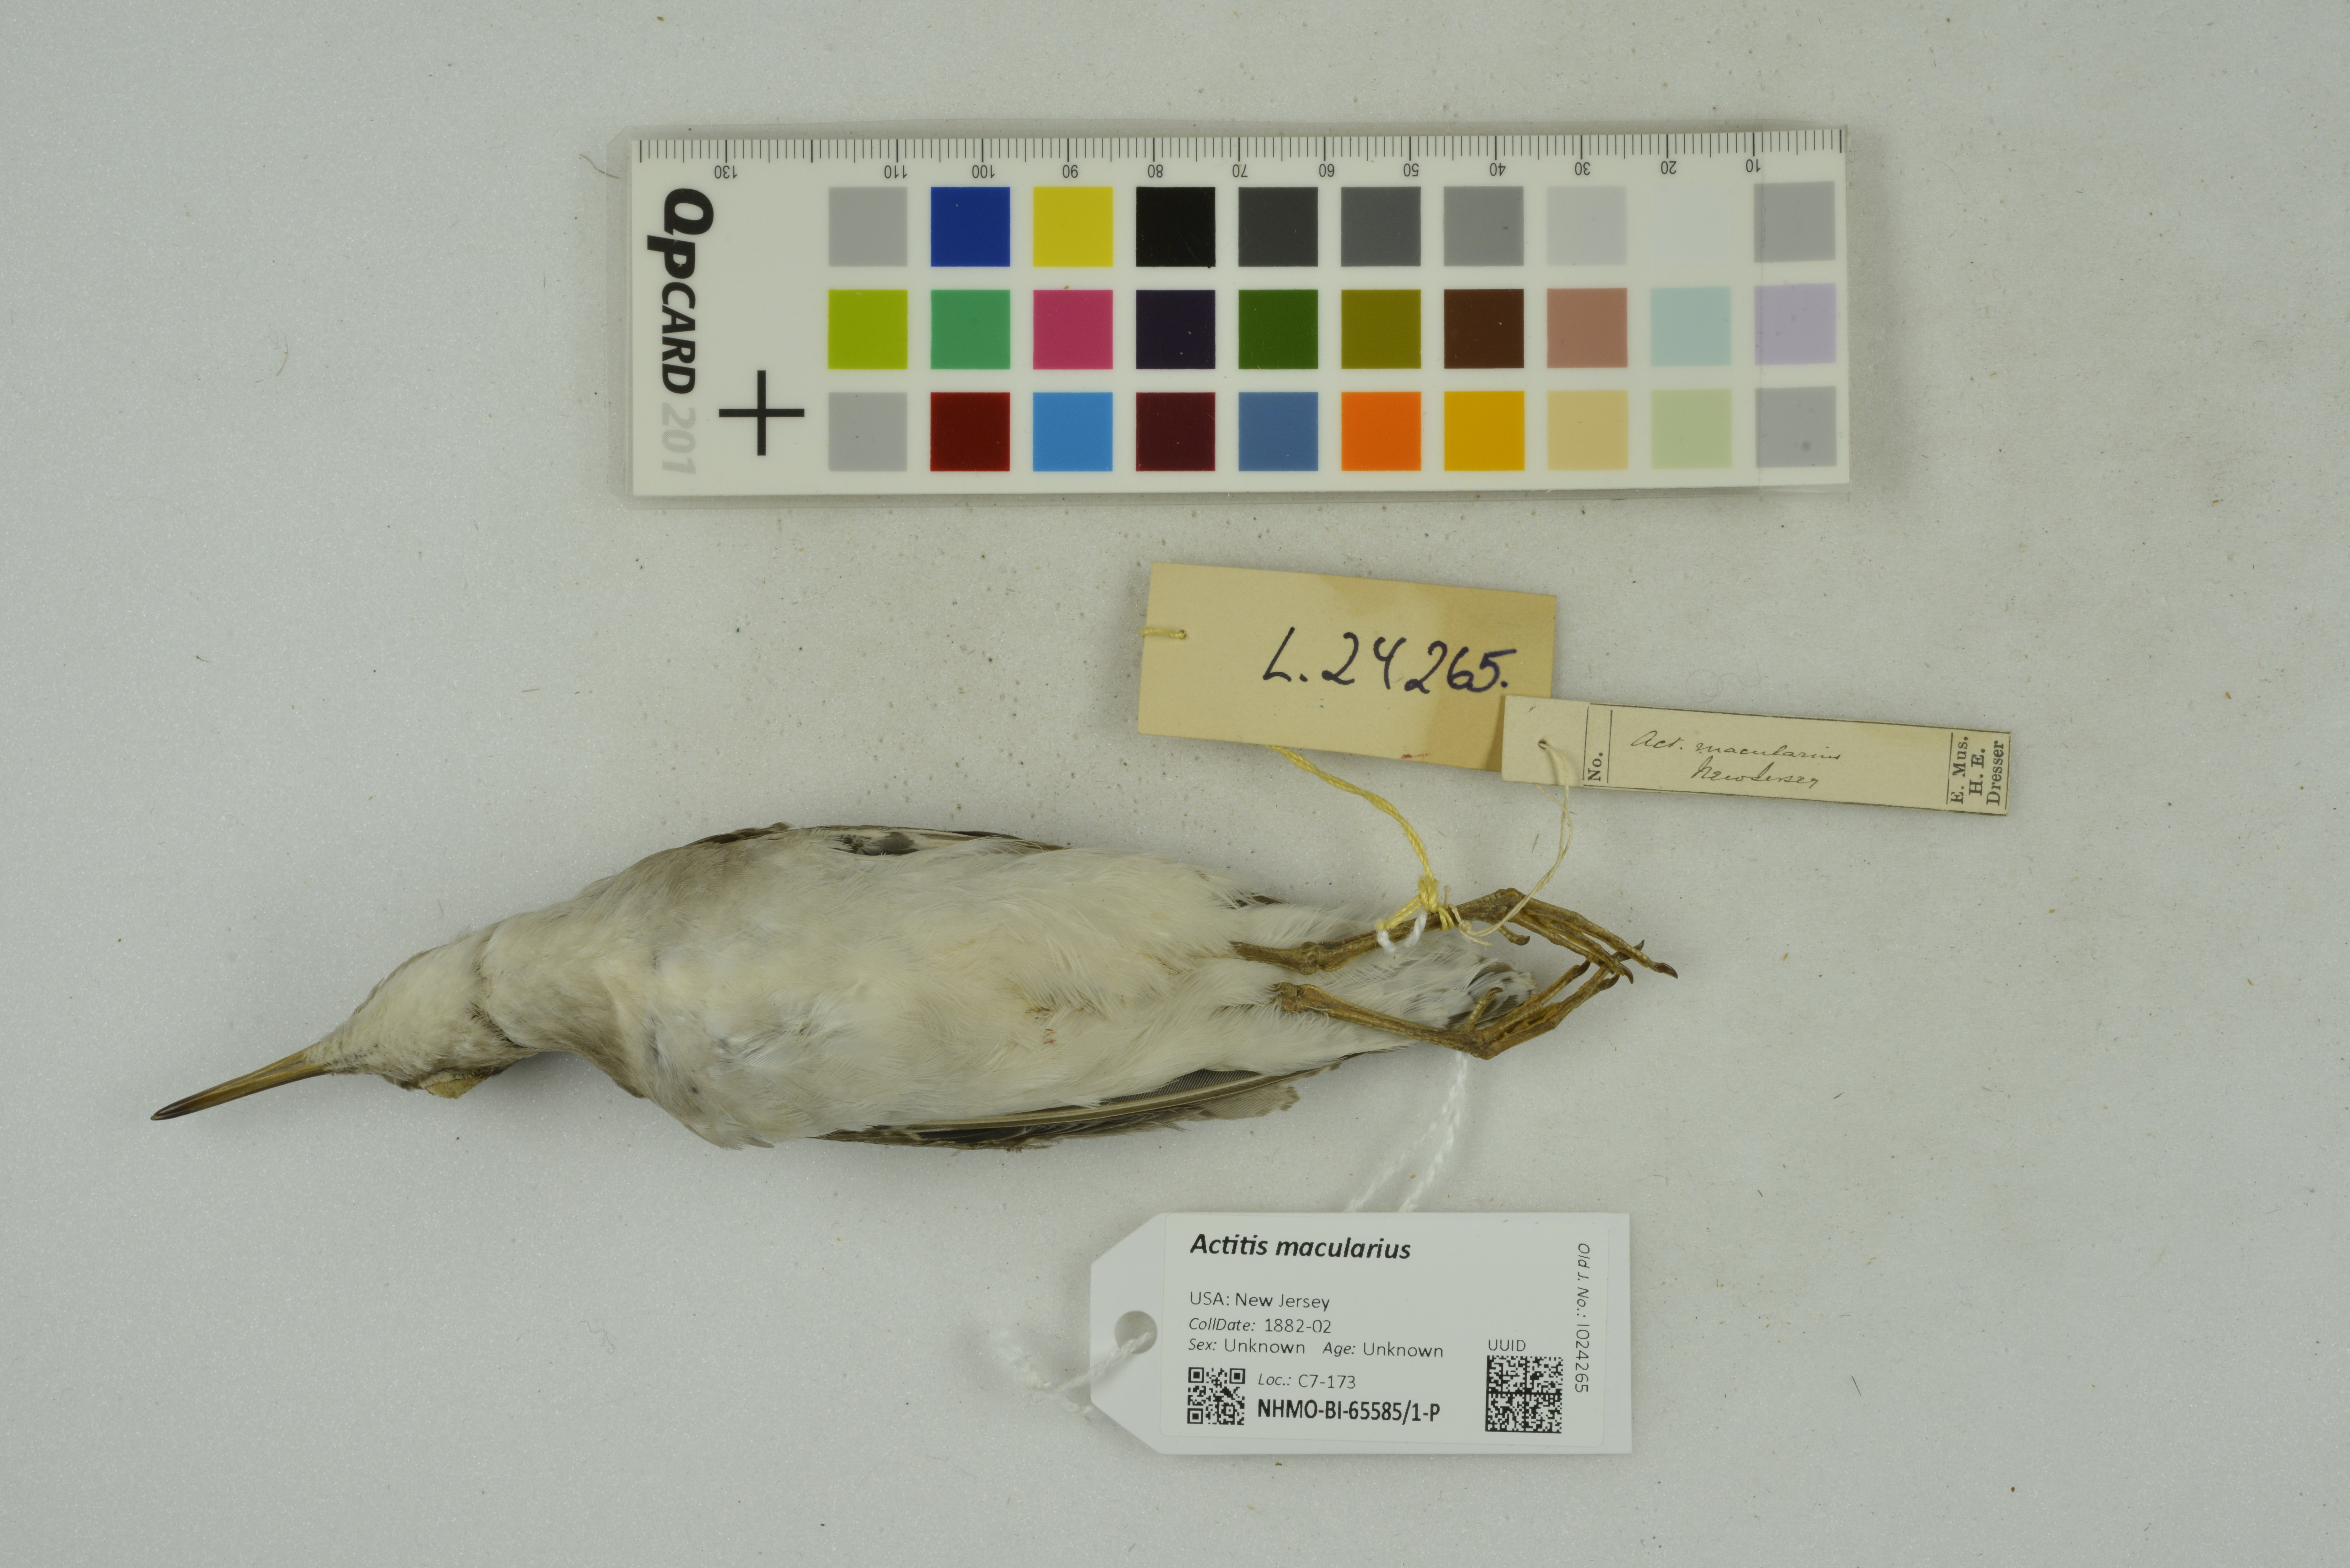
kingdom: Animalia
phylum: Chordata
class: Aves
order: Charadriiformes
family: Scolopacidae
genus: Actitis
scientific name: Actitis macularius
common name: Spotted sandpiper
